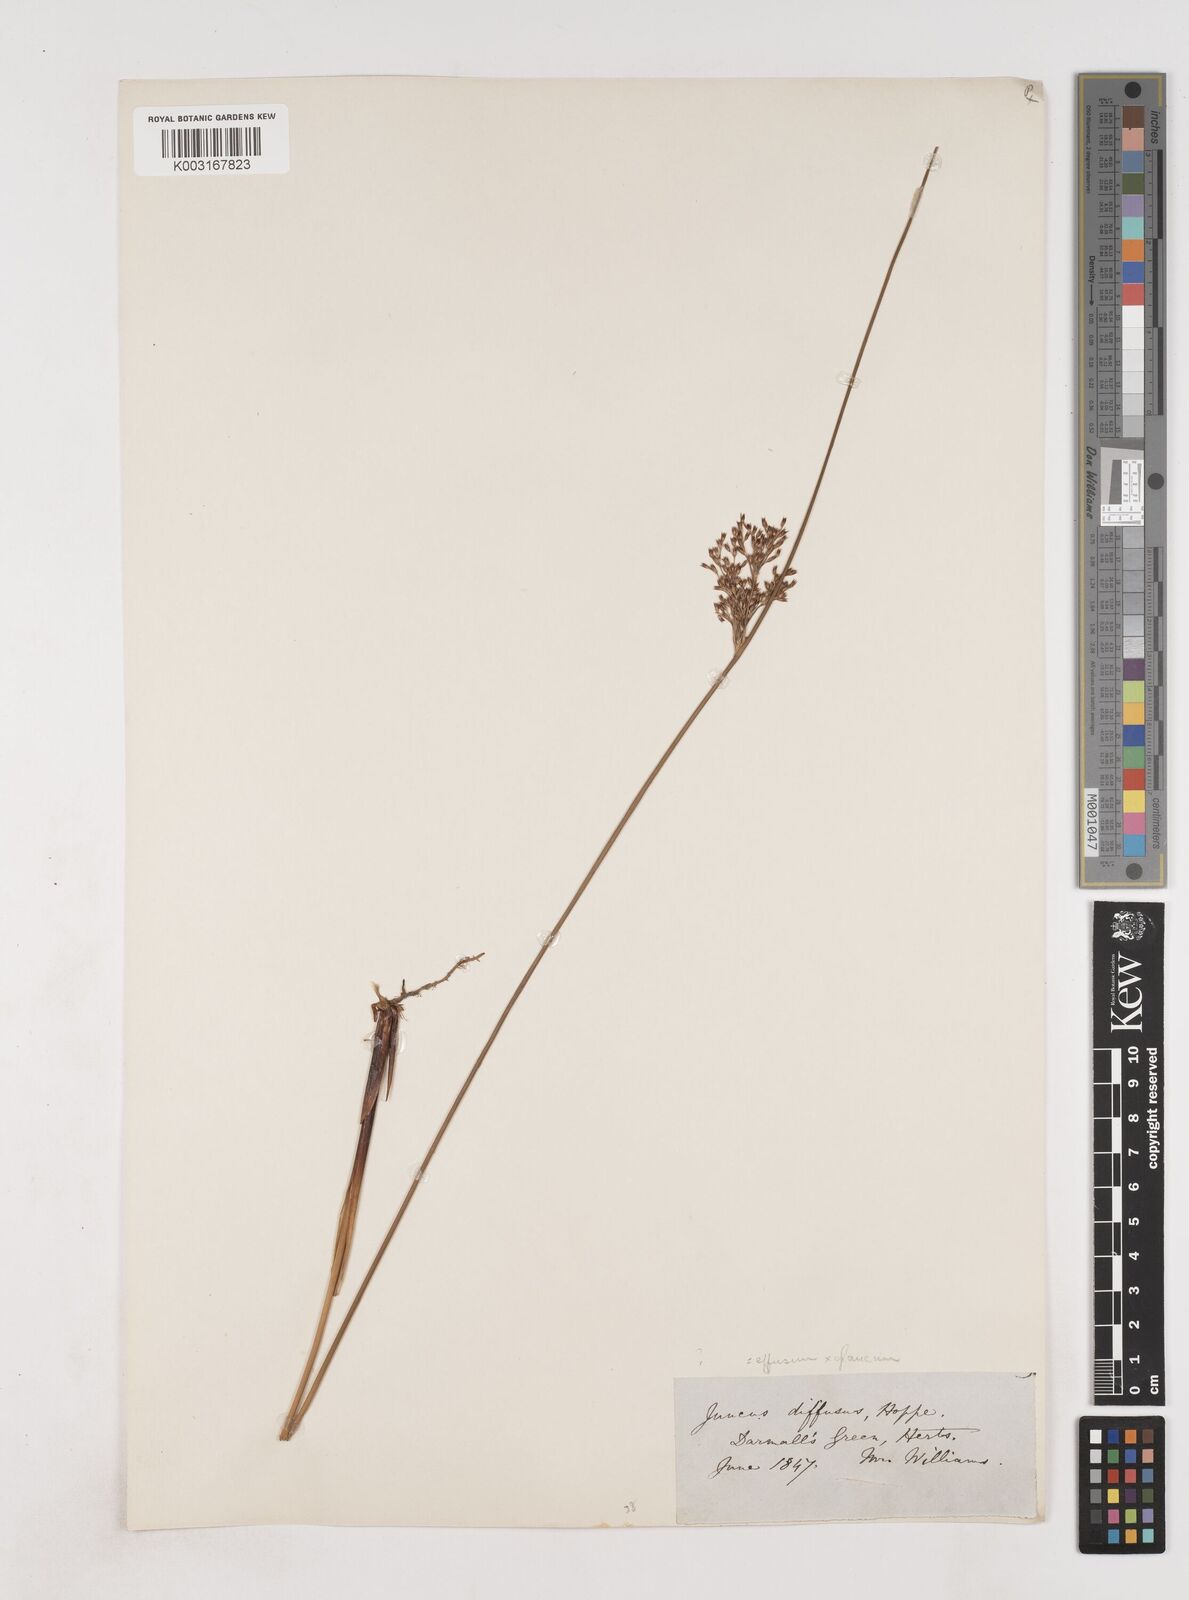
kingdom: Plantae
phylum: Tracheophyta
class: Liliopsida
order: Poales
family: Juncaceae
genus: Juncus
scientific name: Juncus effusus
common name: Soft rush
